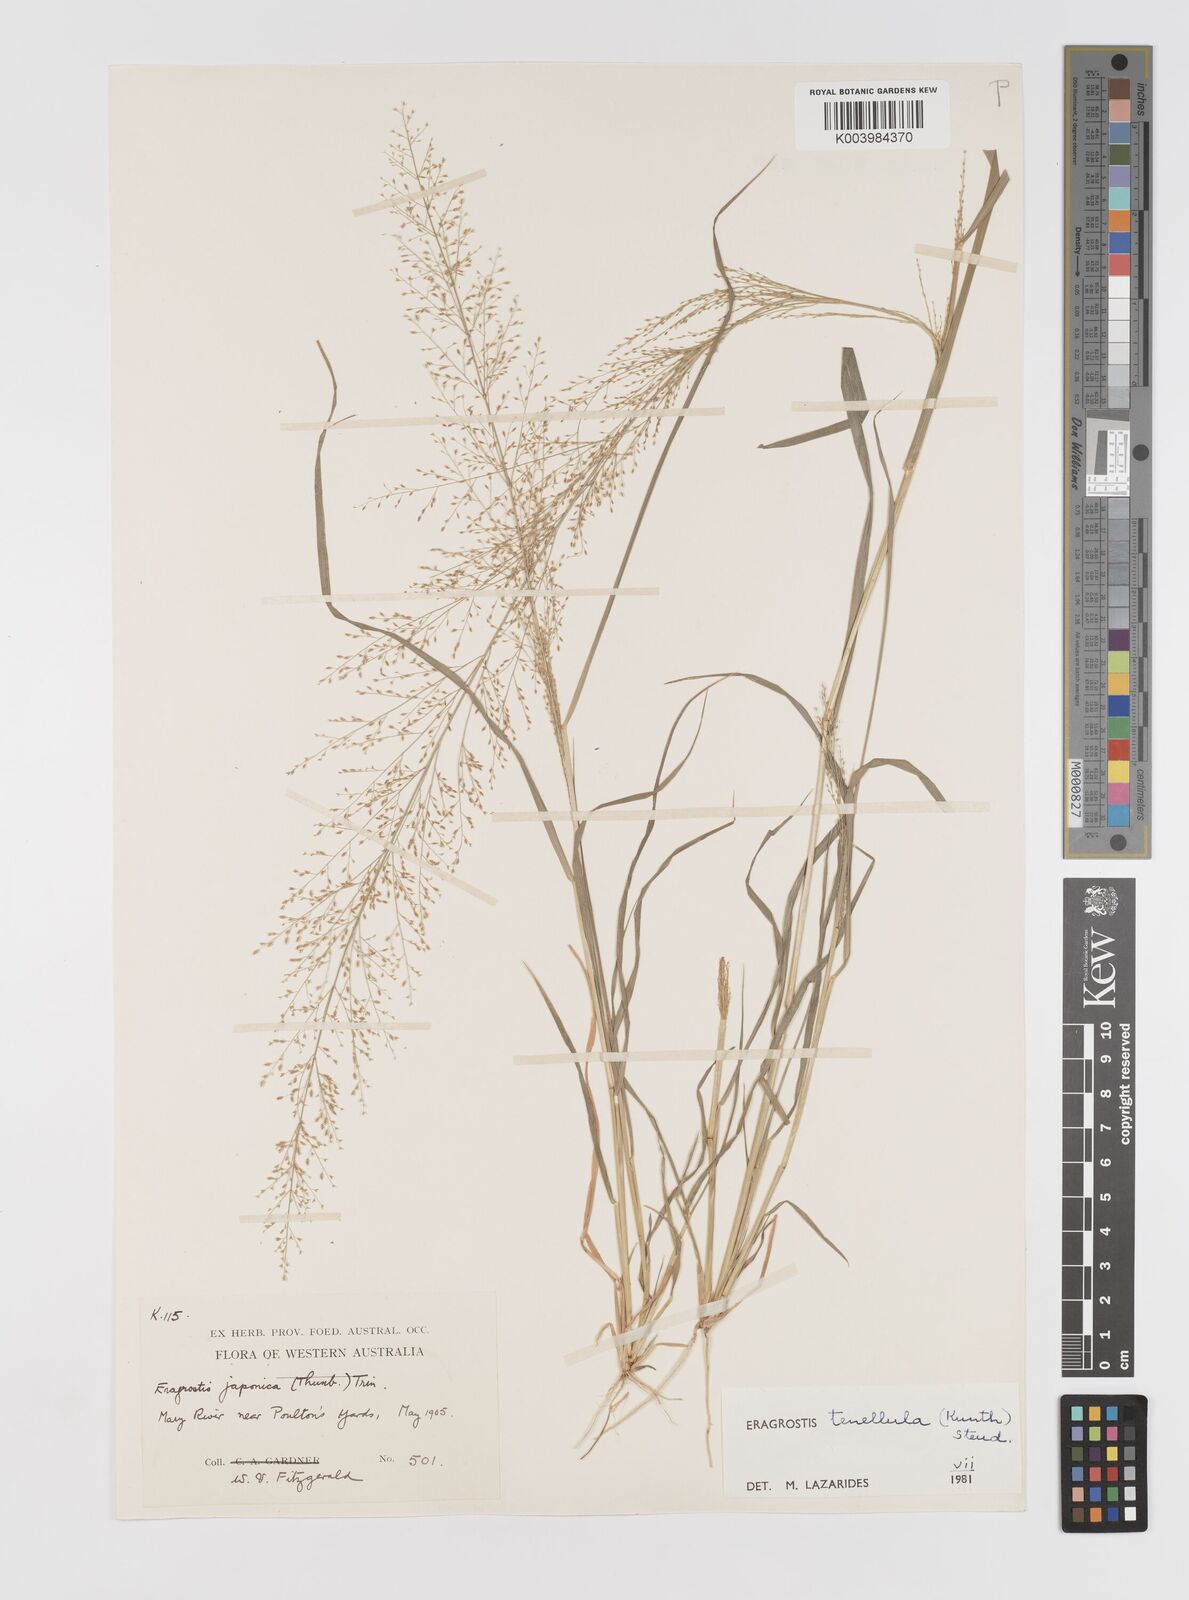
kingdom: Plantae
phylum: Tracheophyta
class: Liliopsida
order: Poales
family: Poaceae
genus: Eragrostis
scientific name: Eragrostis tenellula
